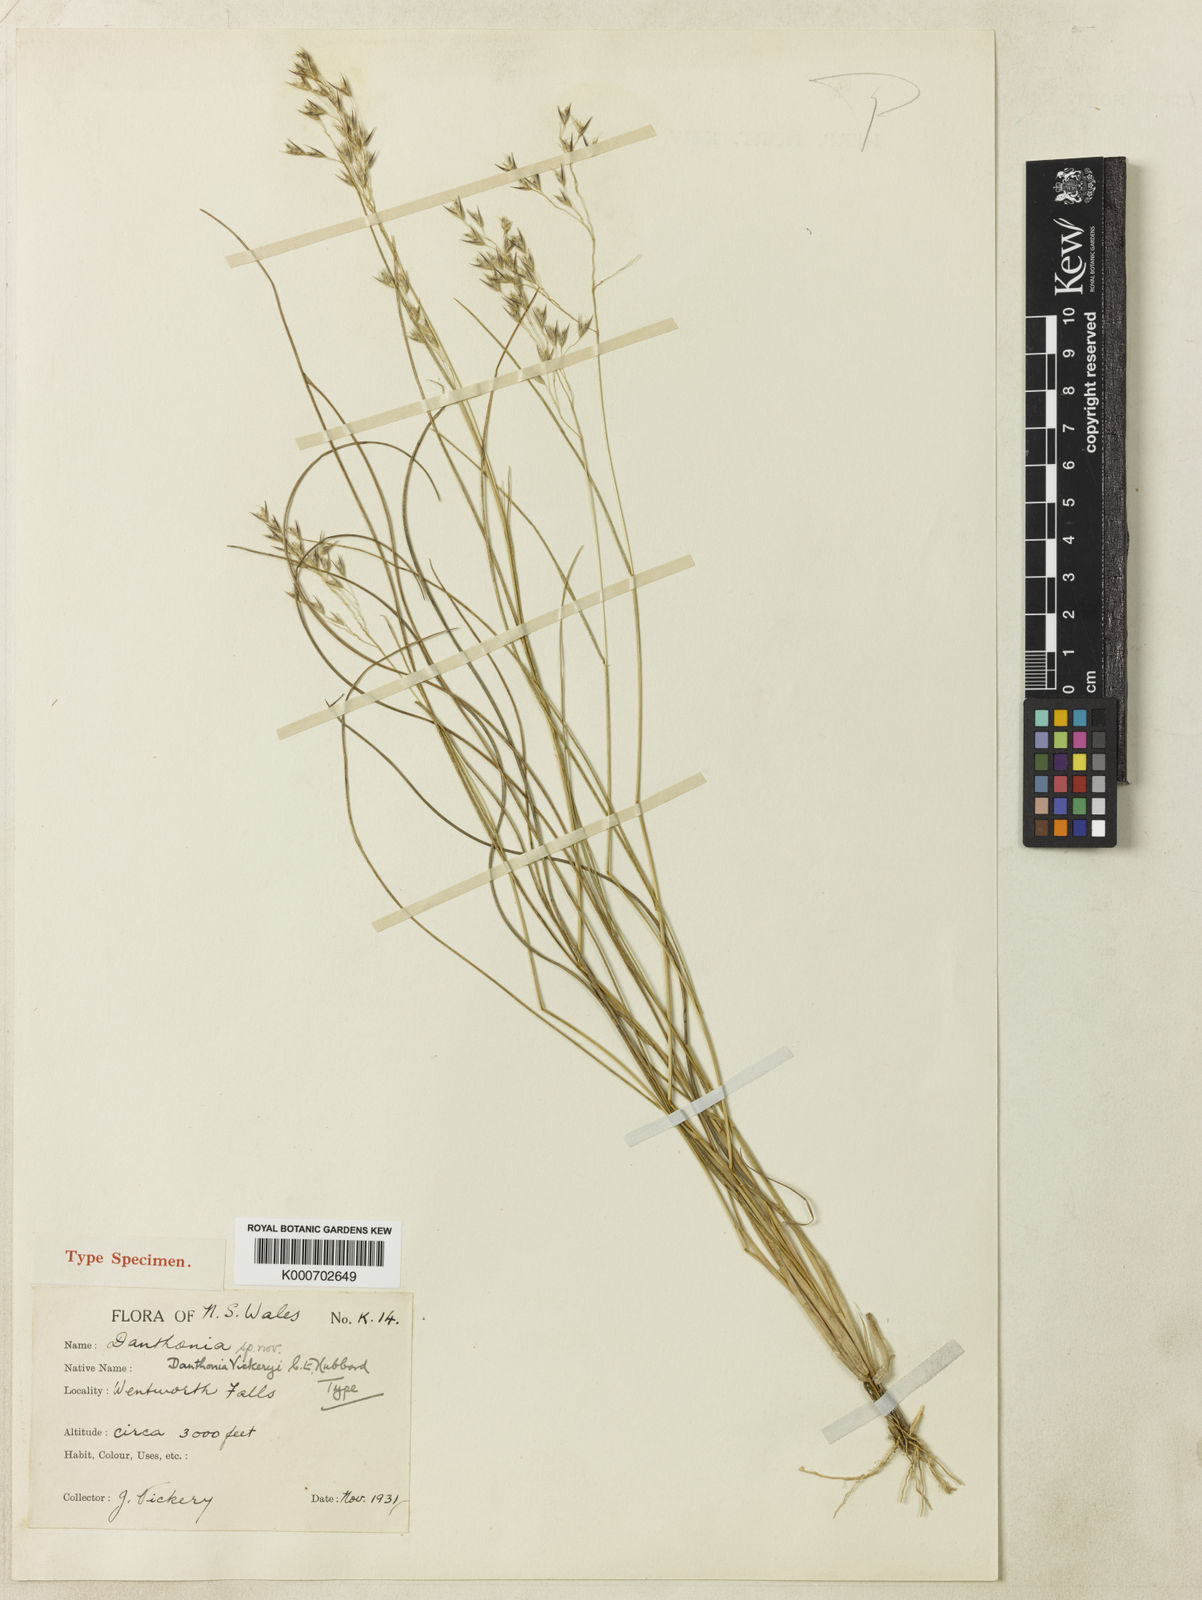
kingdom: Plantae
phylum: Tracheophyta
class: Liliopsida
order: Poales
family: Poaceae
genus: Plinthanthesis
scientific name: Plinthanthesis urvillei
